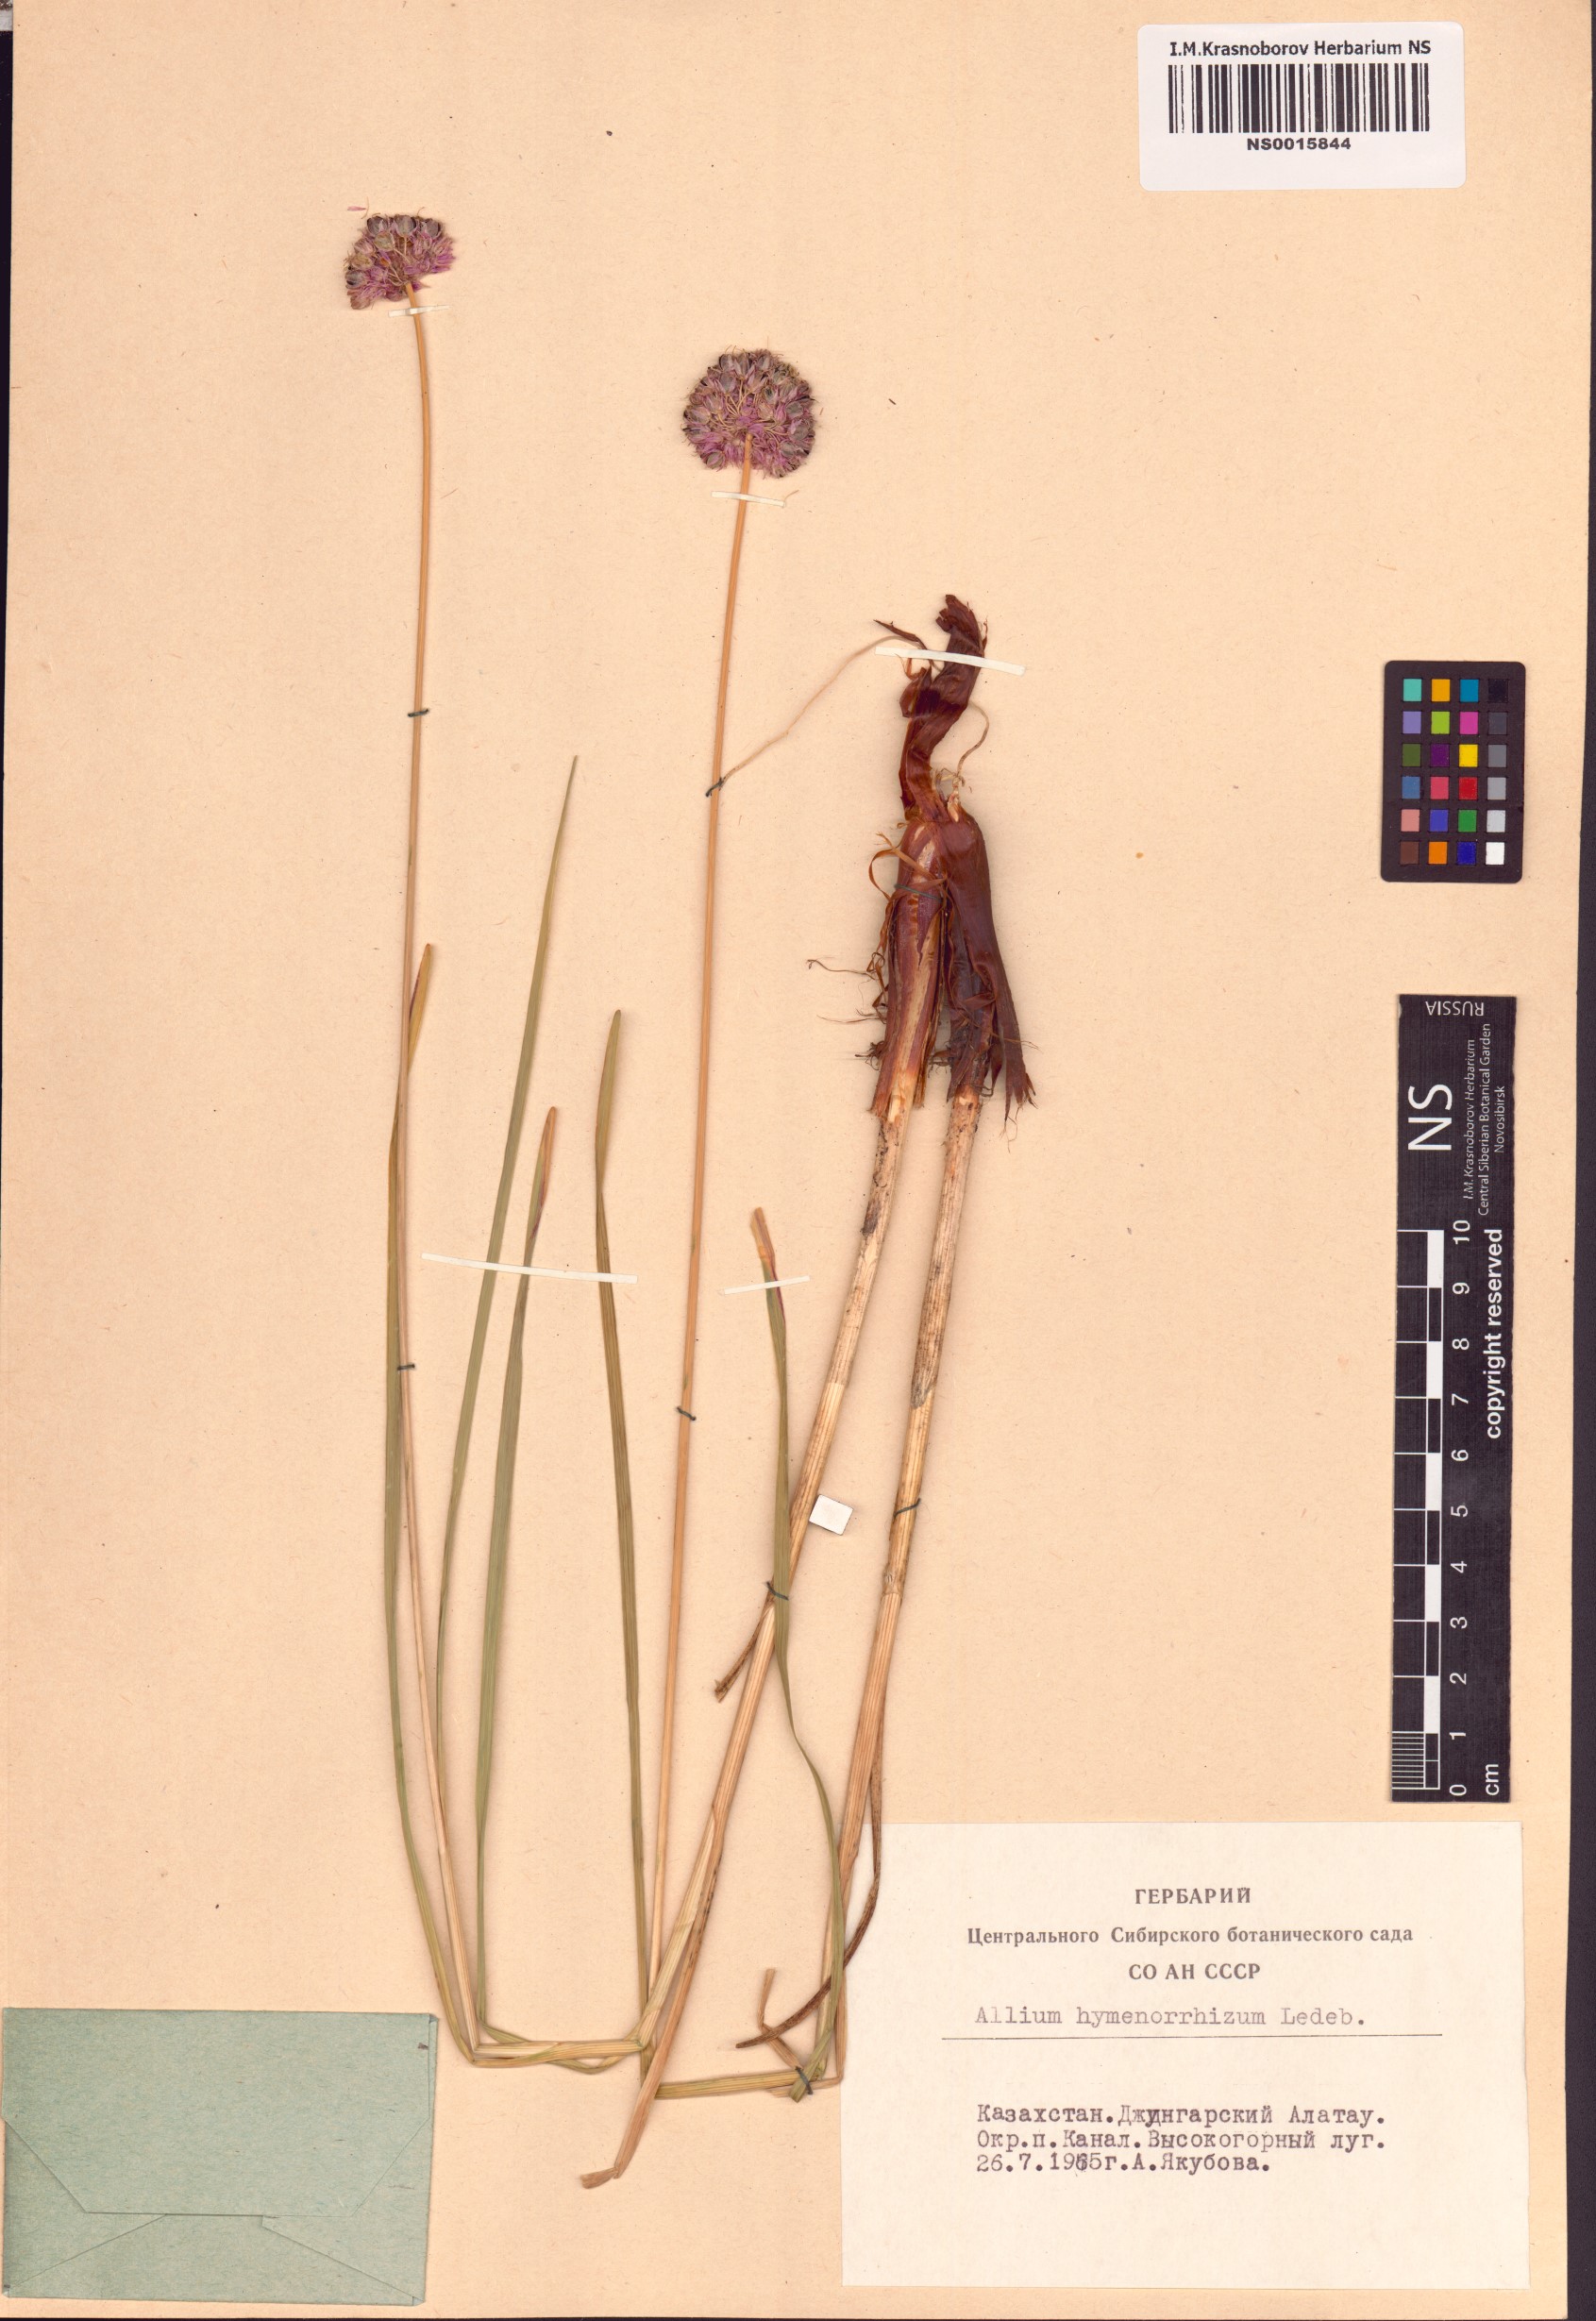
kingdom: Plantae
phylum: Tracheophyta
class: Liliopsida
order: Asparagales
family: Amaryllidaceae
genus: Allium
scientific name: Allium hymenorhizum
